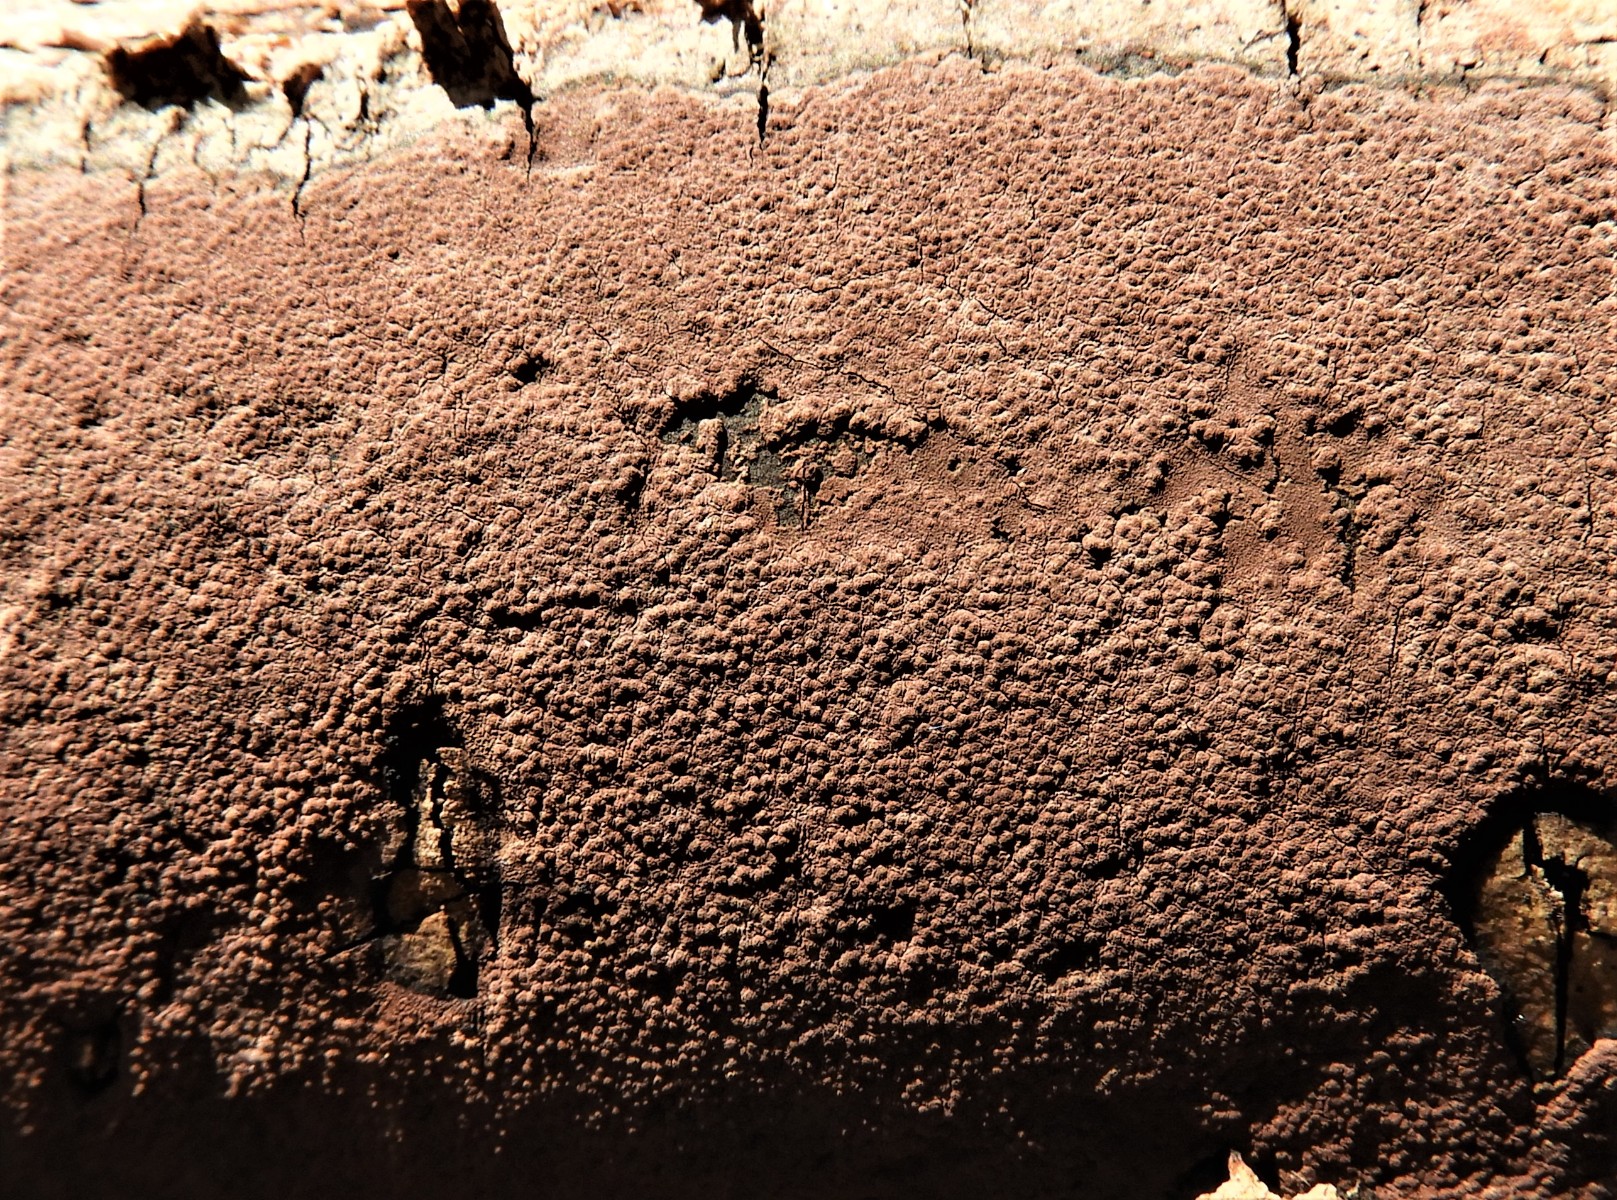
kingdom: Fungi
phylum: Ascomycota
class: Sordariomycetes
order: Xylariales
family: Hypoxylaceae
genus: Hypoxylon
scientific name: Hypoxylon petriniae
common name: nedsænket kulbær
